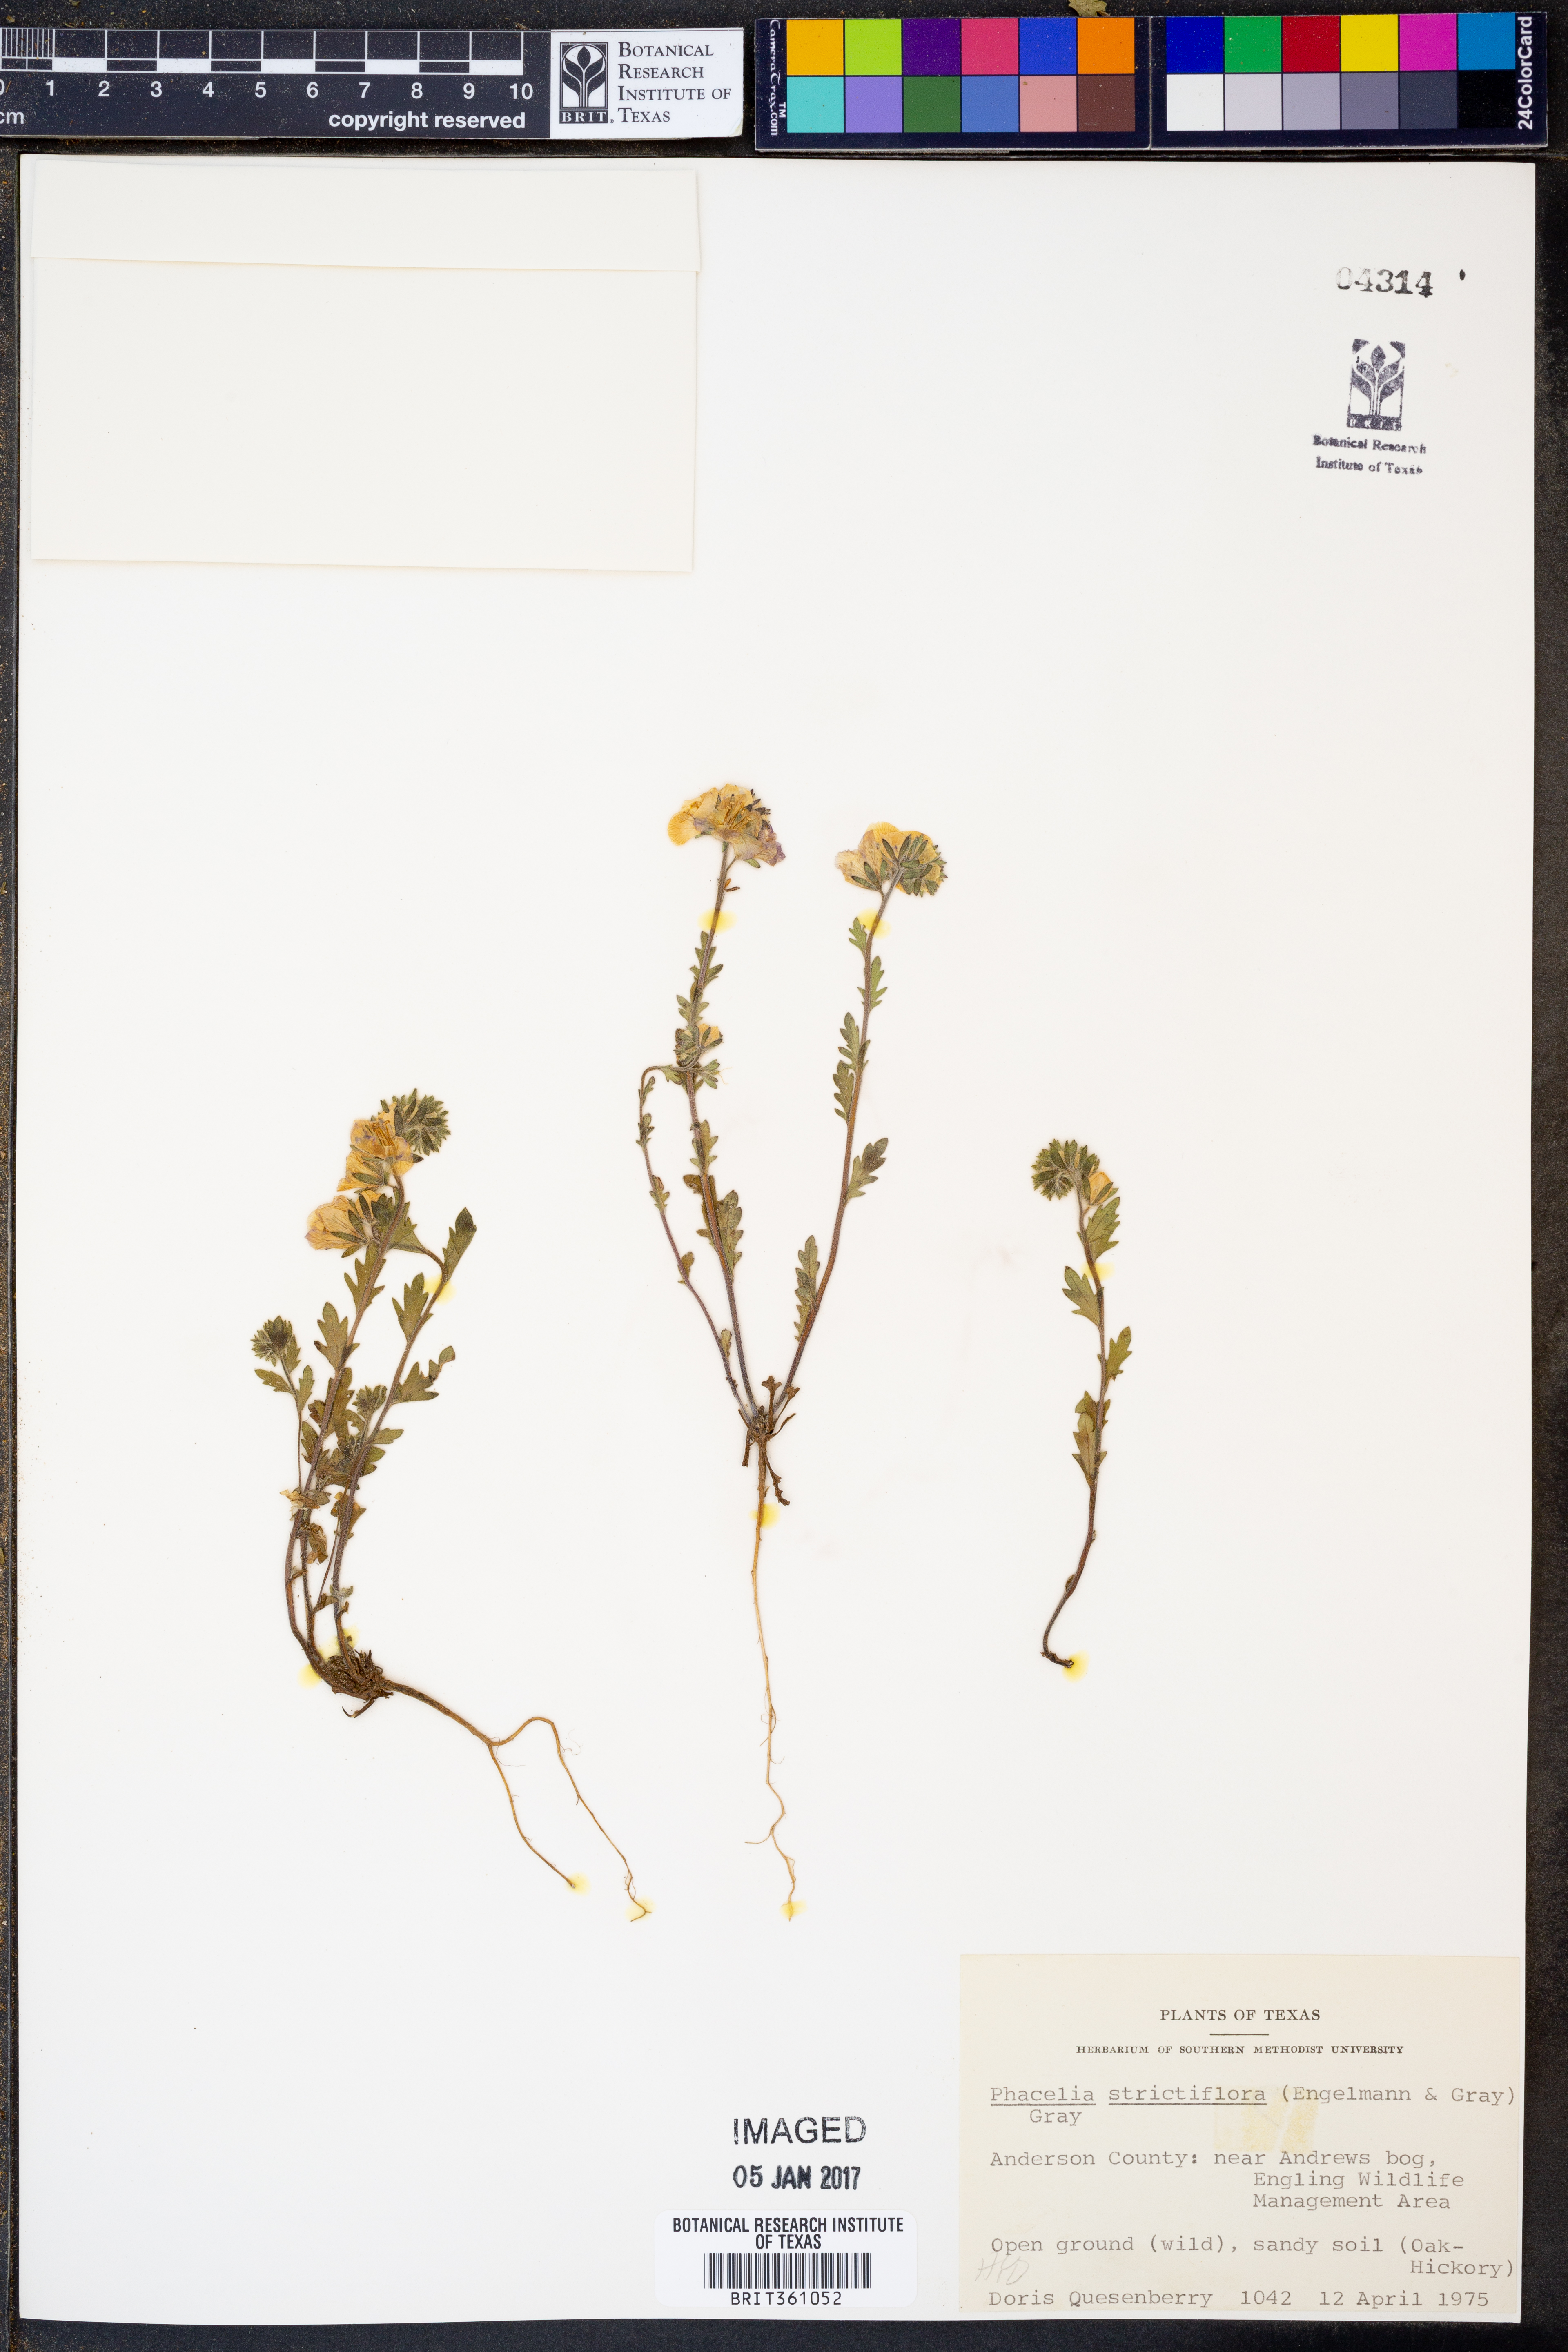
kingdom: Plantae
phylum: Tracheophyta
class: Magnoliopsida
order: Boraginales
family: Hydrophyllaceae
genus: Phacelia
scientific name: Phacelia strictiflora
